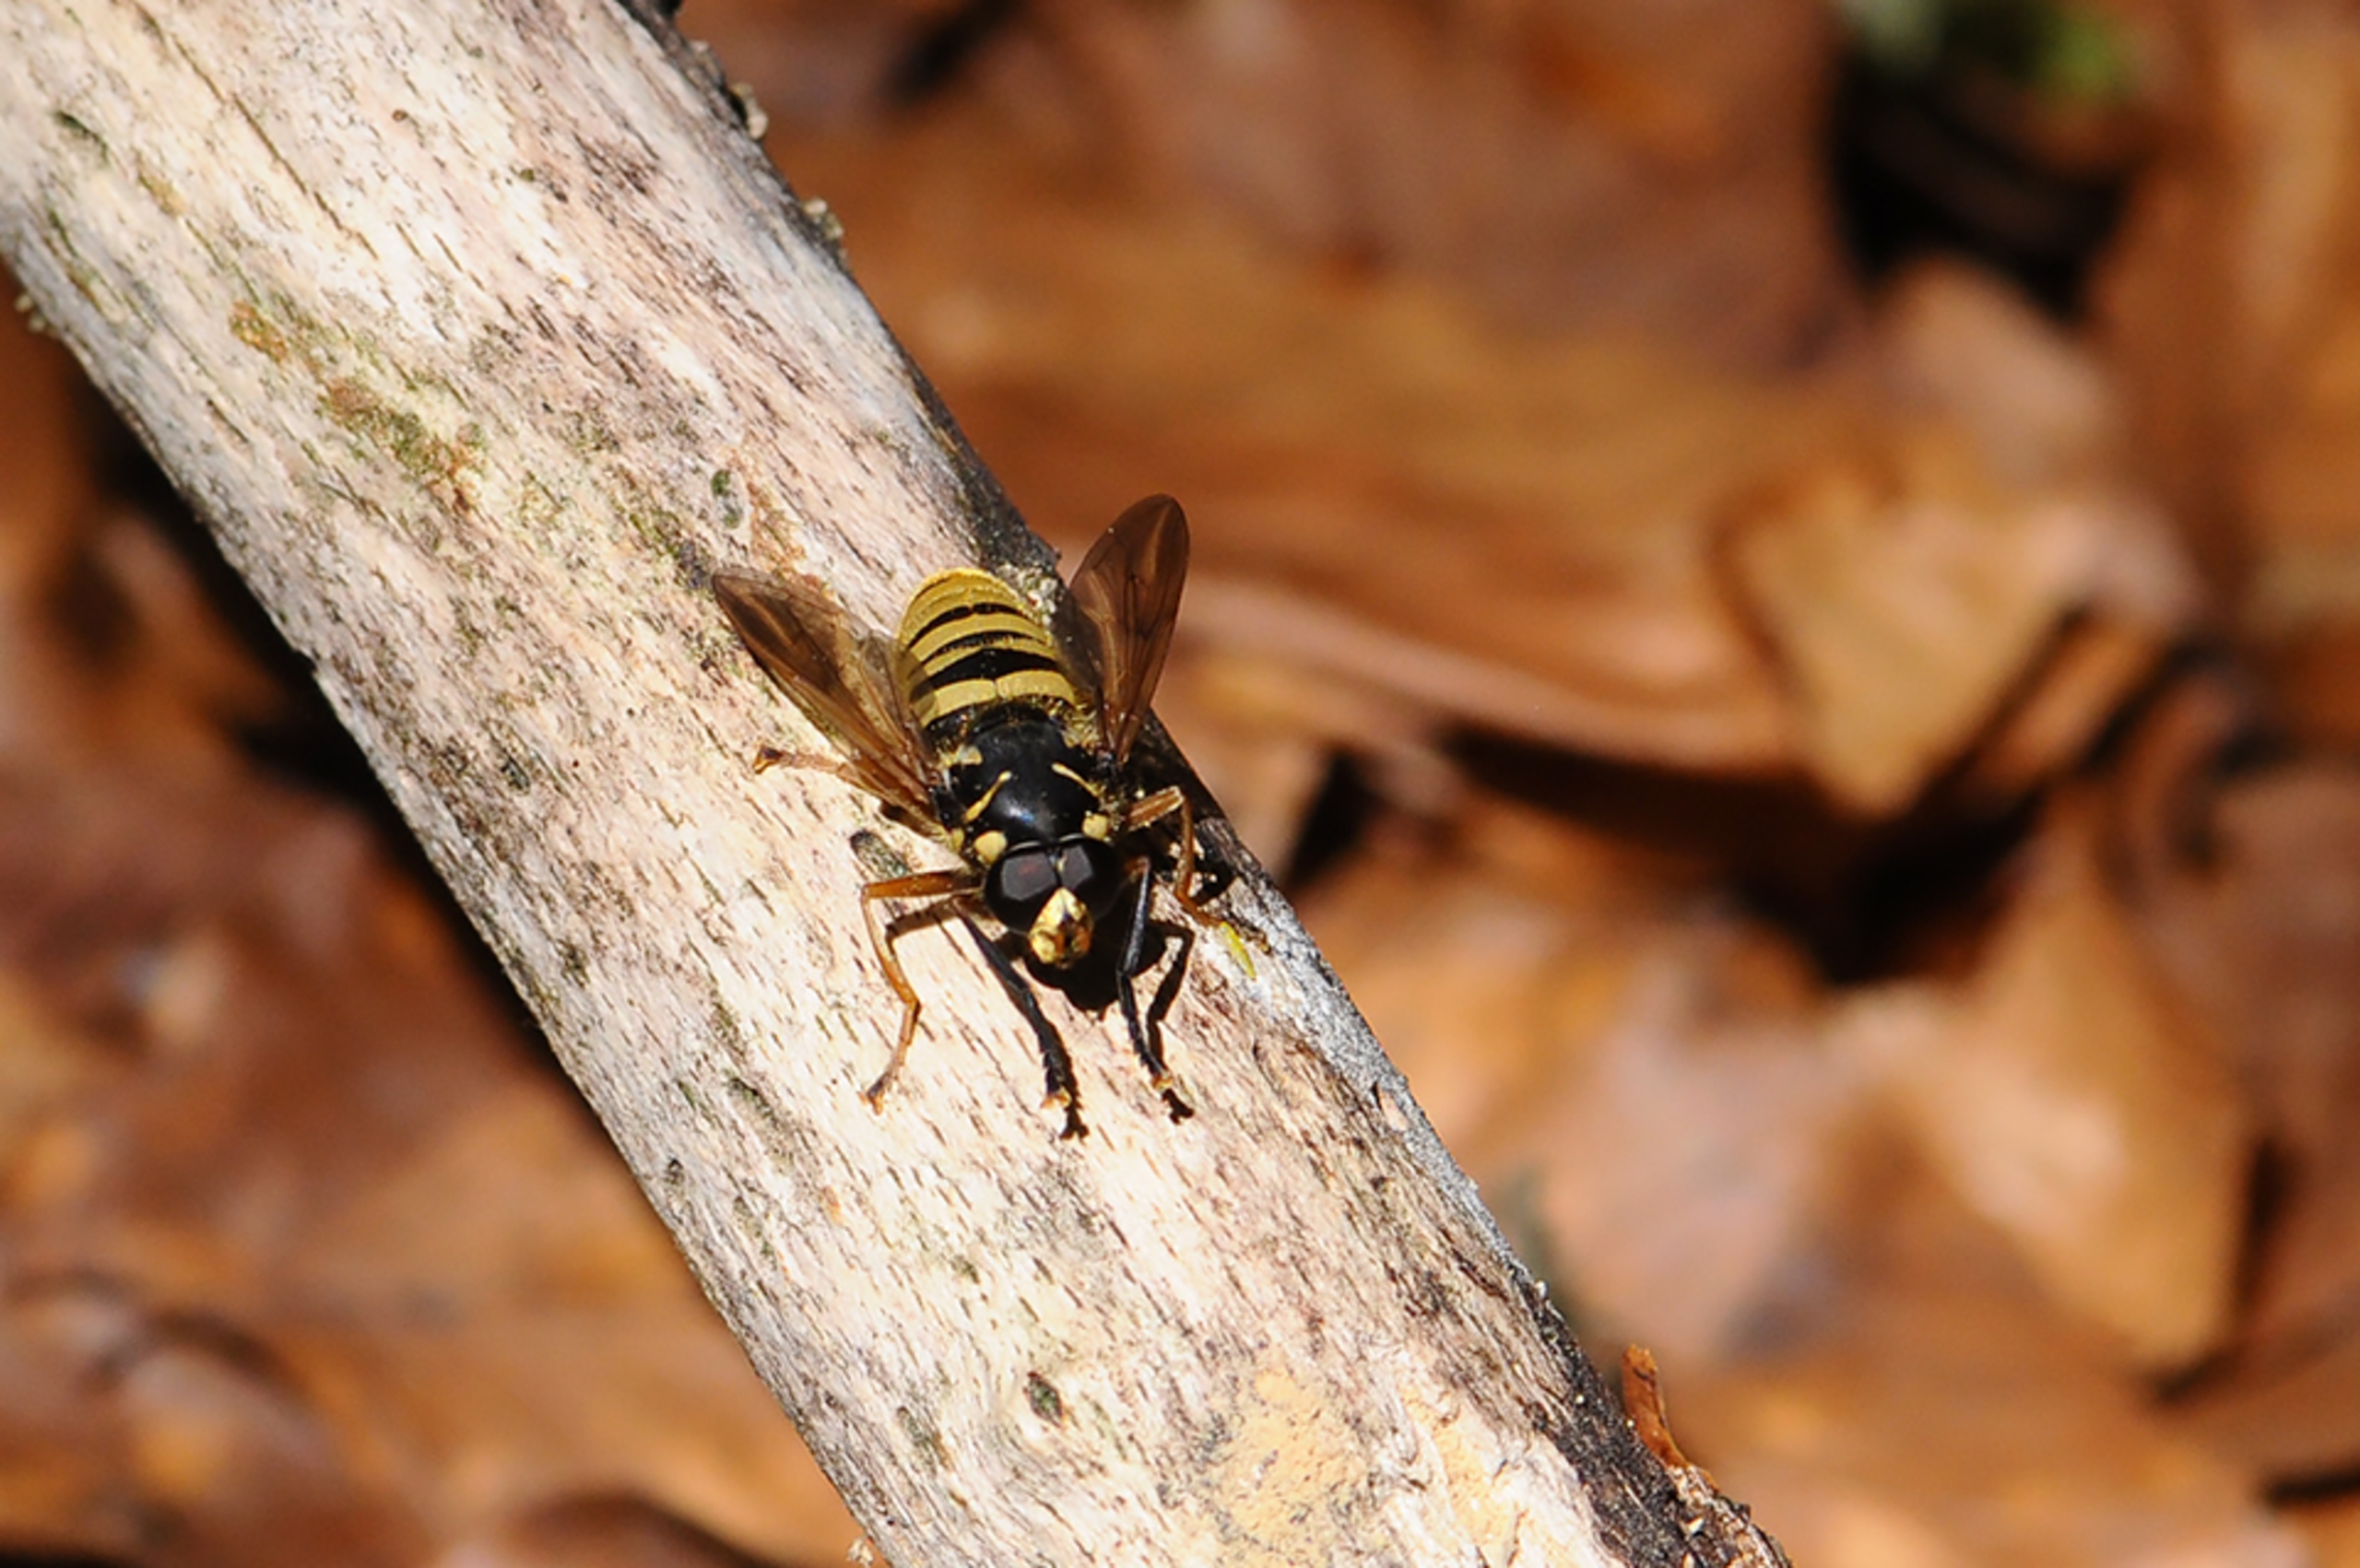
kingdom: Animalia
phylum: Arthropoda
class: Insecta
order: Diptera
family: Syrphidae
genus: Temnostoma
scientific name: Temnostoma vespiforme
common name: Gul vedsvirreflue
